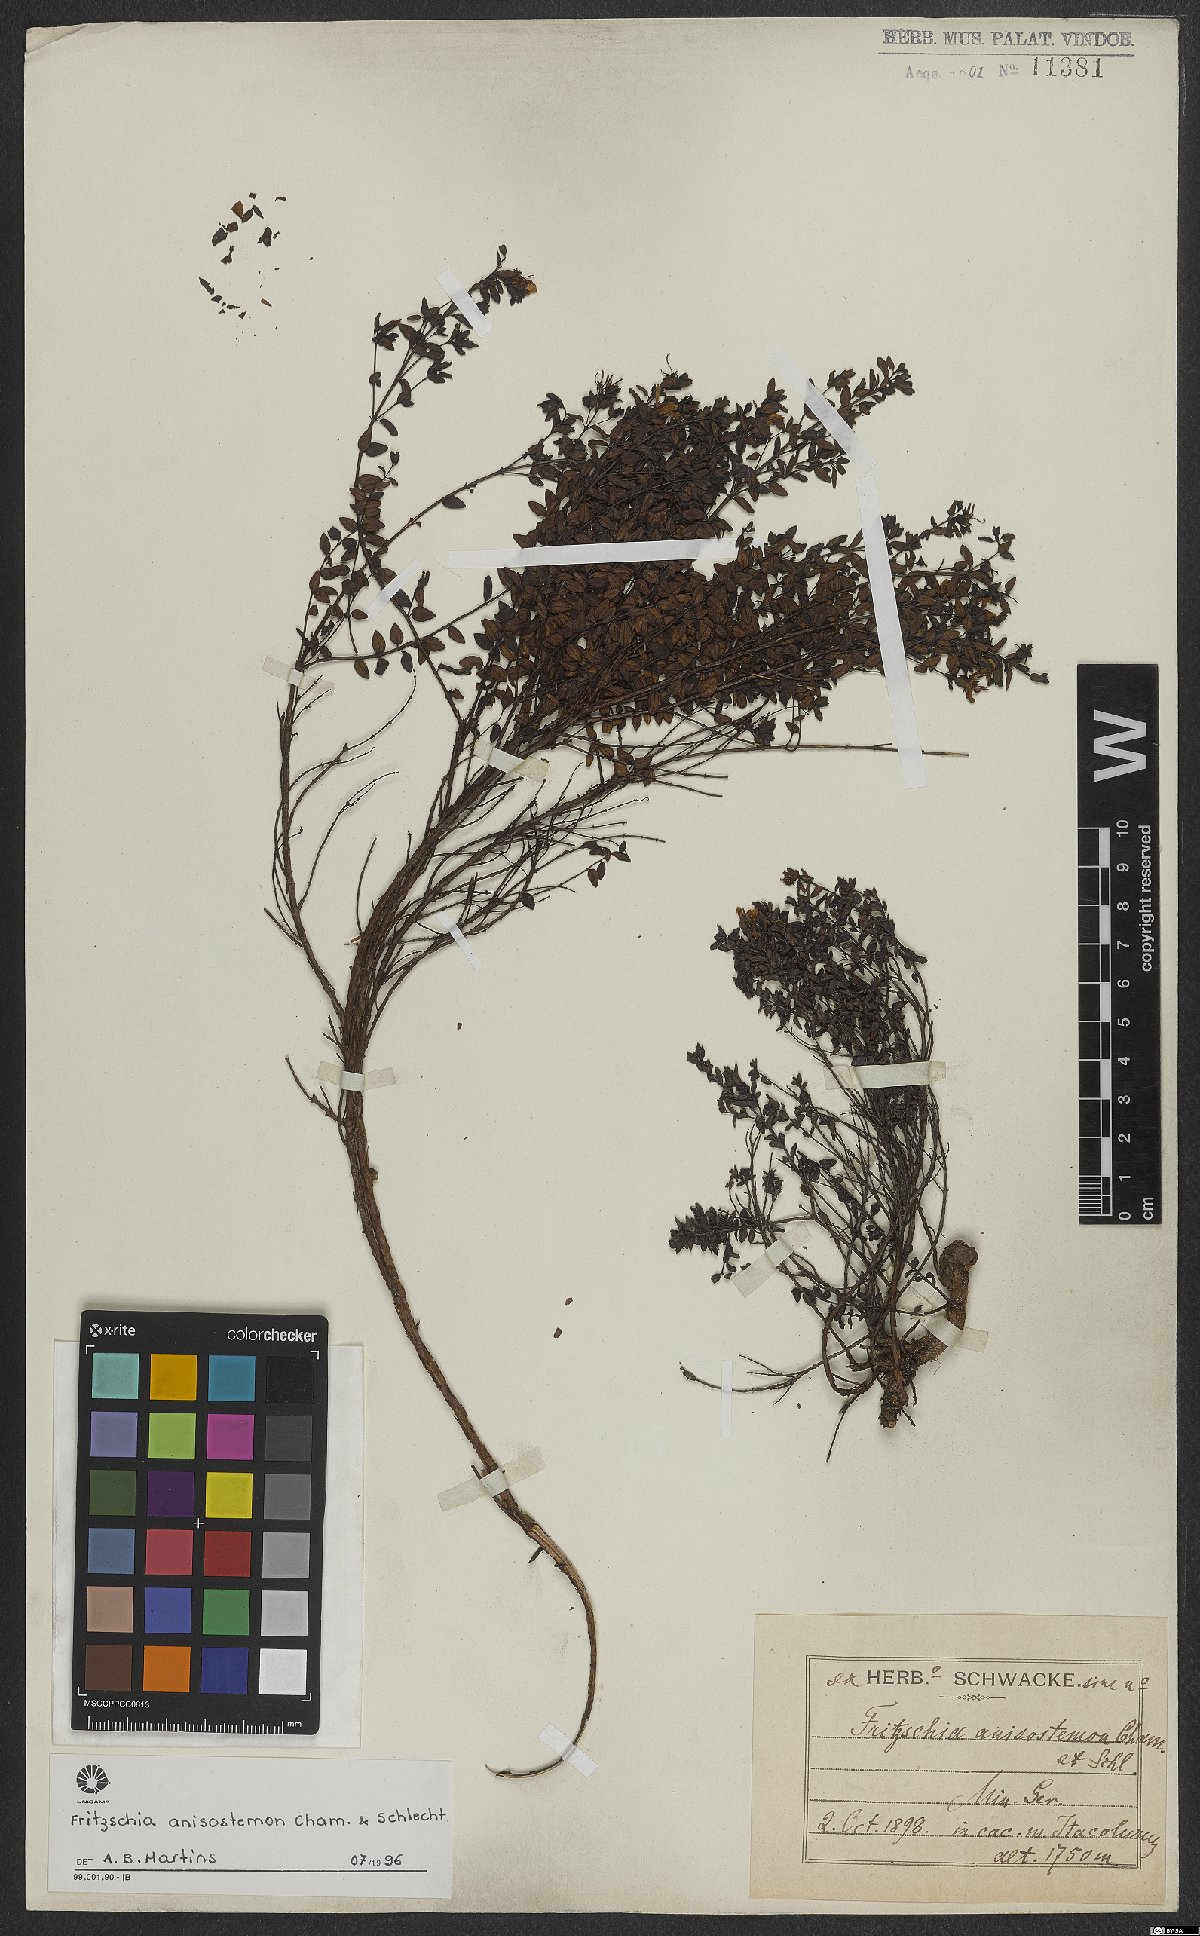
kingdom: Plantae
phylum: Tracheophyta
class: Magnoliopsida
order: Myrtales
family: Melastomataceae
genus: Fritzschia
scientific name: Fritzschia anisostemon
